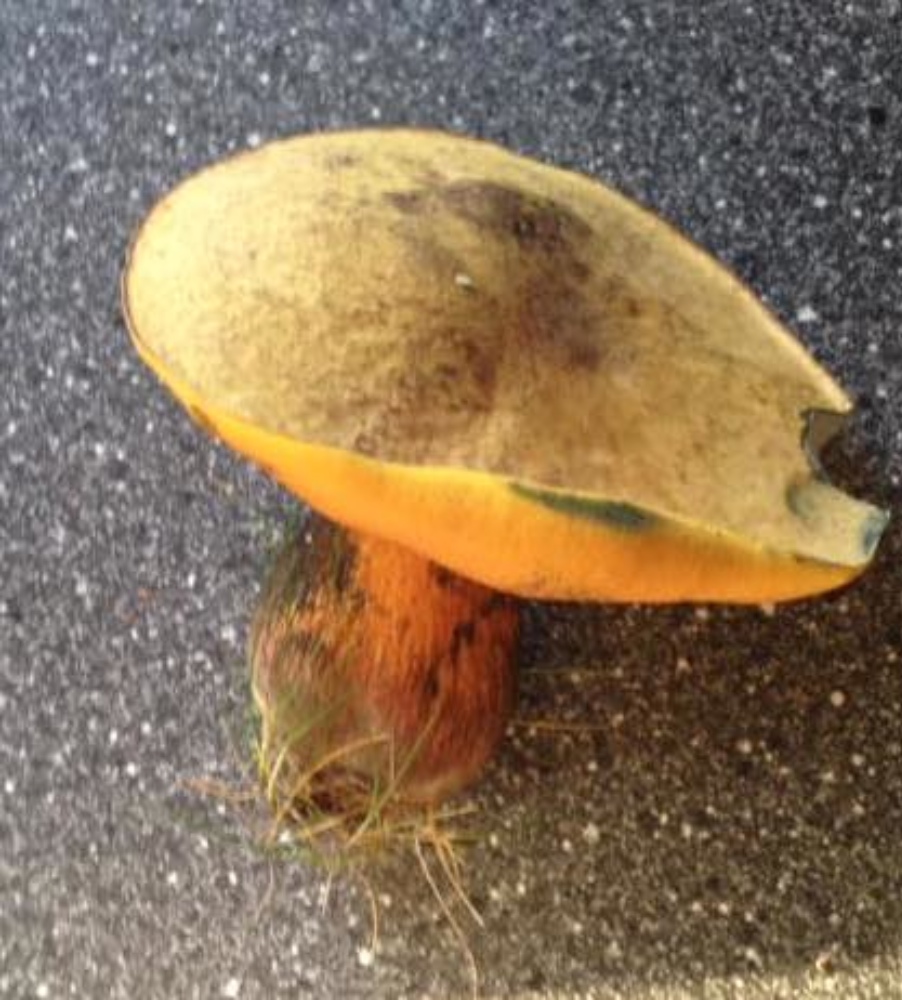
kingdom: Fungi
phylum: Basidiomycota
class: Agaricomycetes
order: Boletales
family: Boletaceae
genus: Suillellus
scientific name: Suillellus luridus
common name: netstokket indigorørhat
